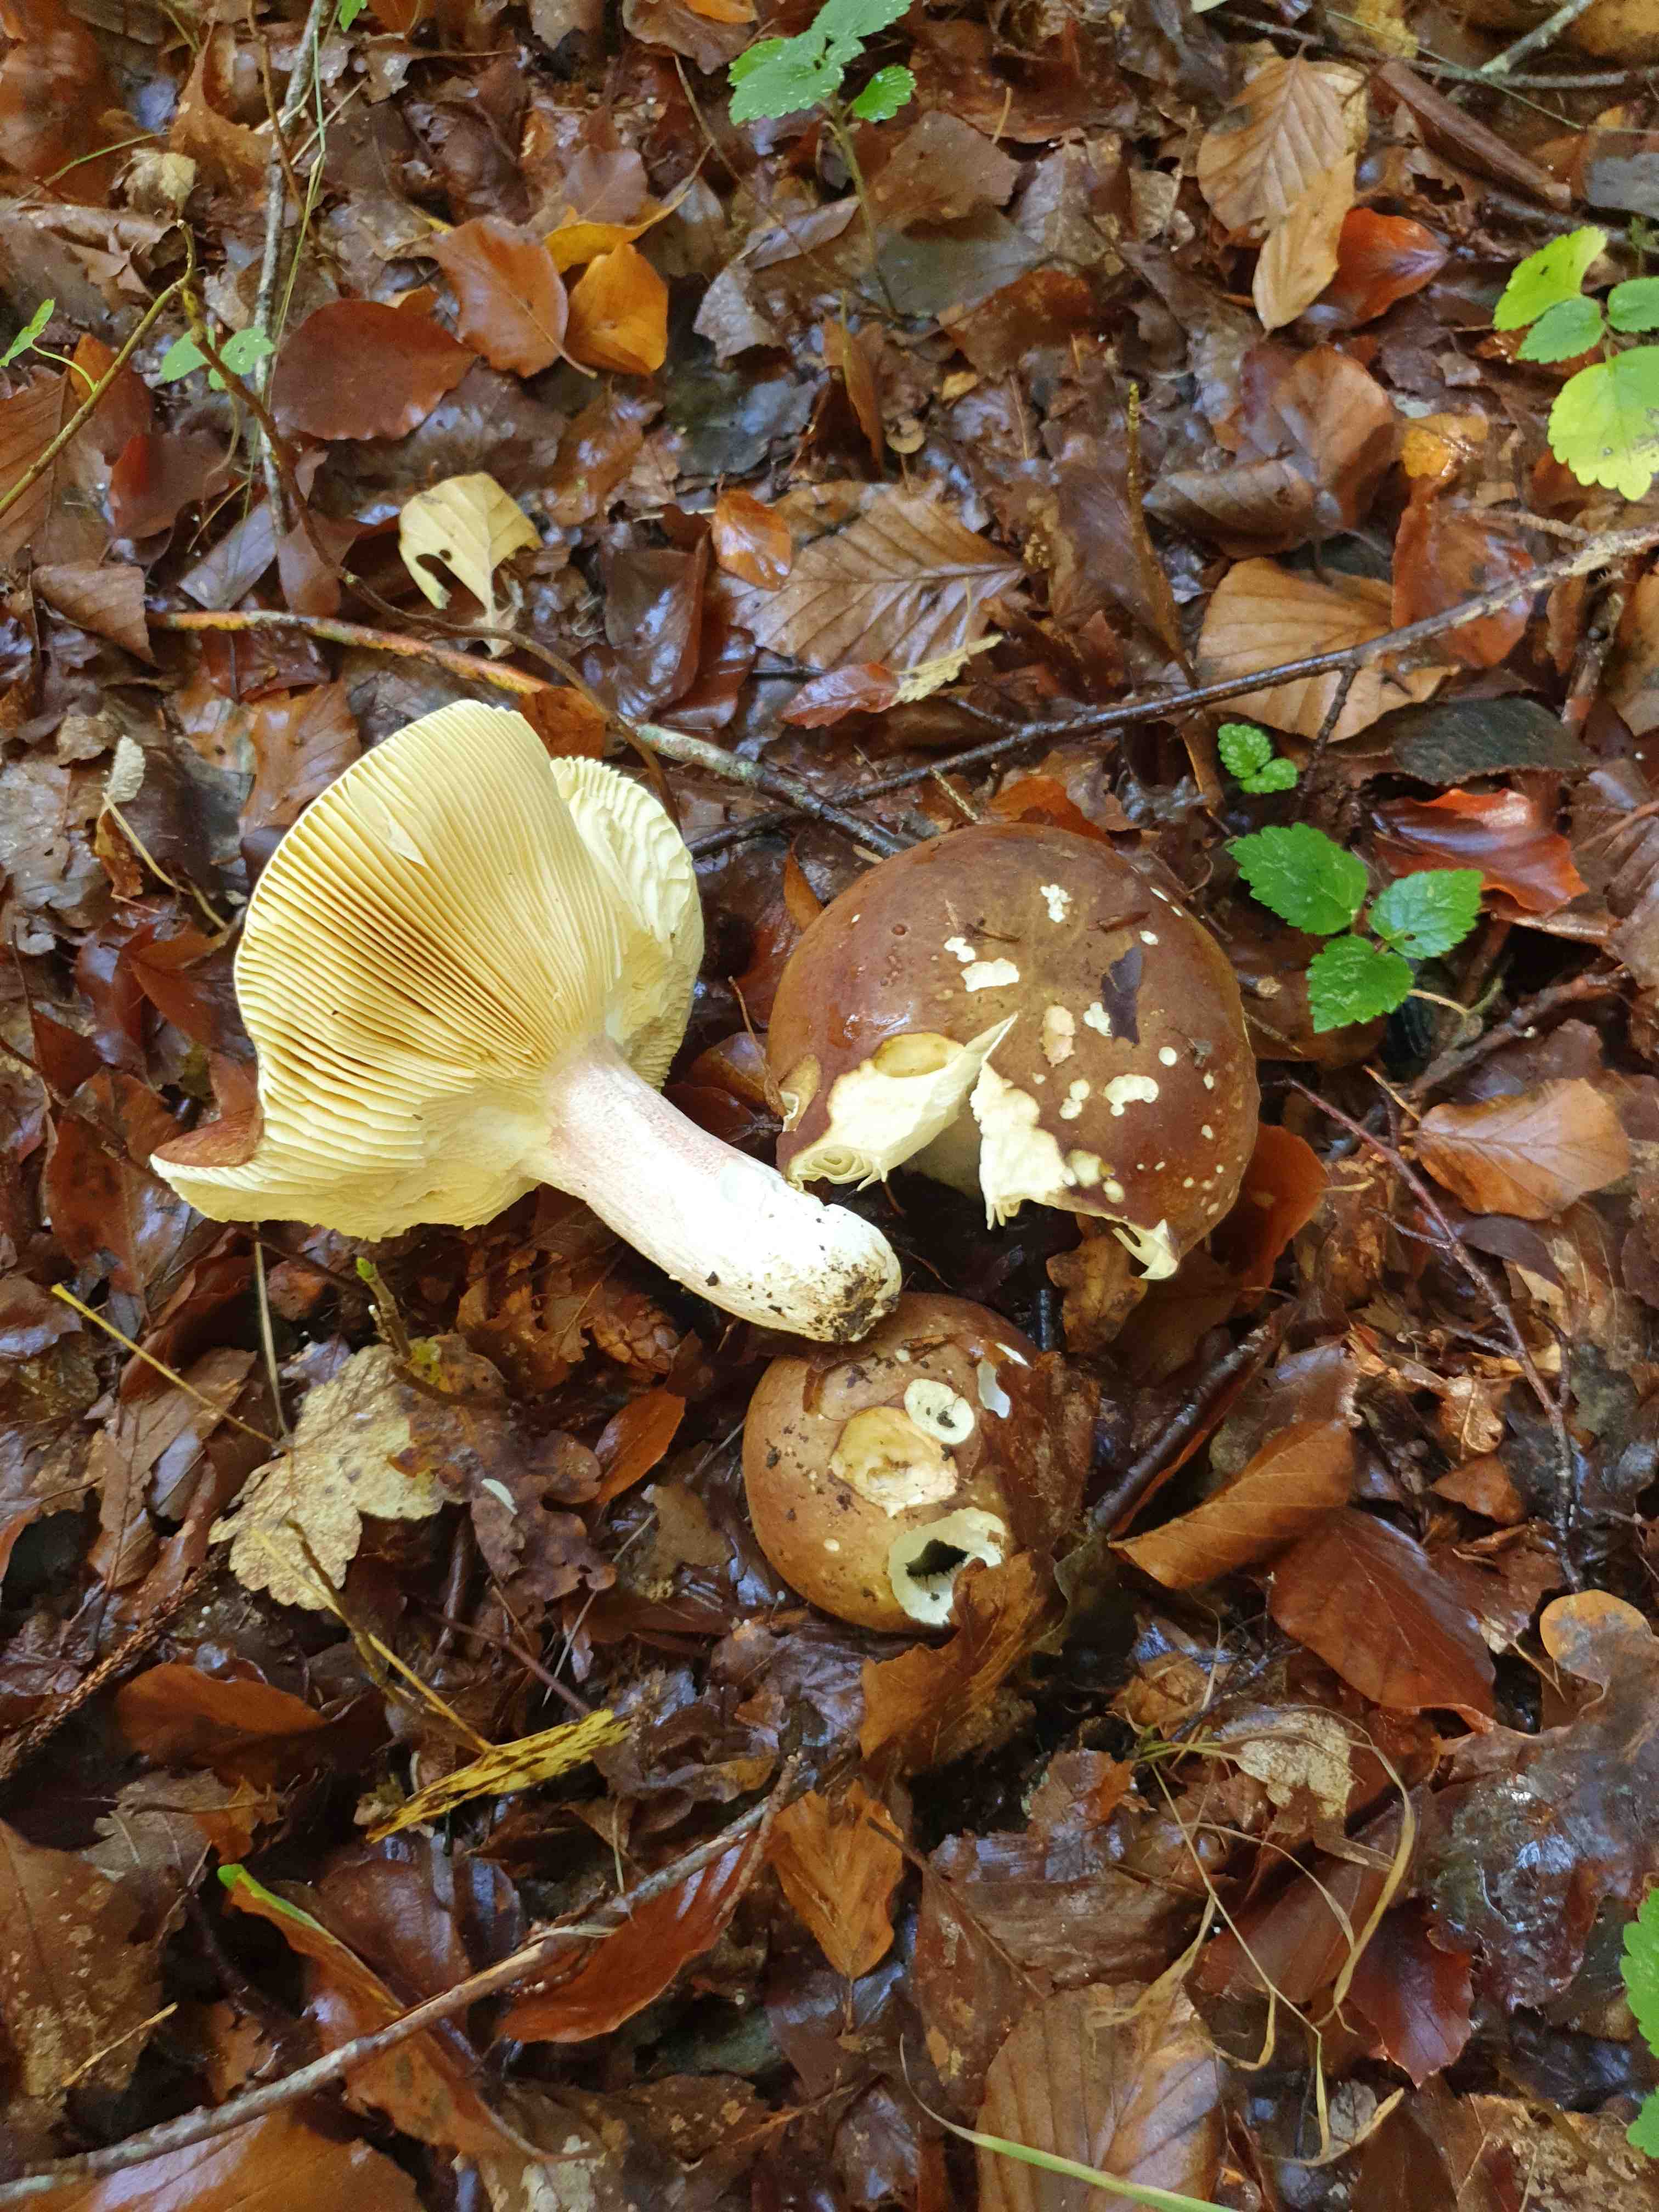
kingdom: Fungi
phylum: Basidiomycota
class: Agaricomycetes
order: Russulales
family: Russulaceae
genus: Russula
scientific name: Russula olivacea
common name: stor skørhat
